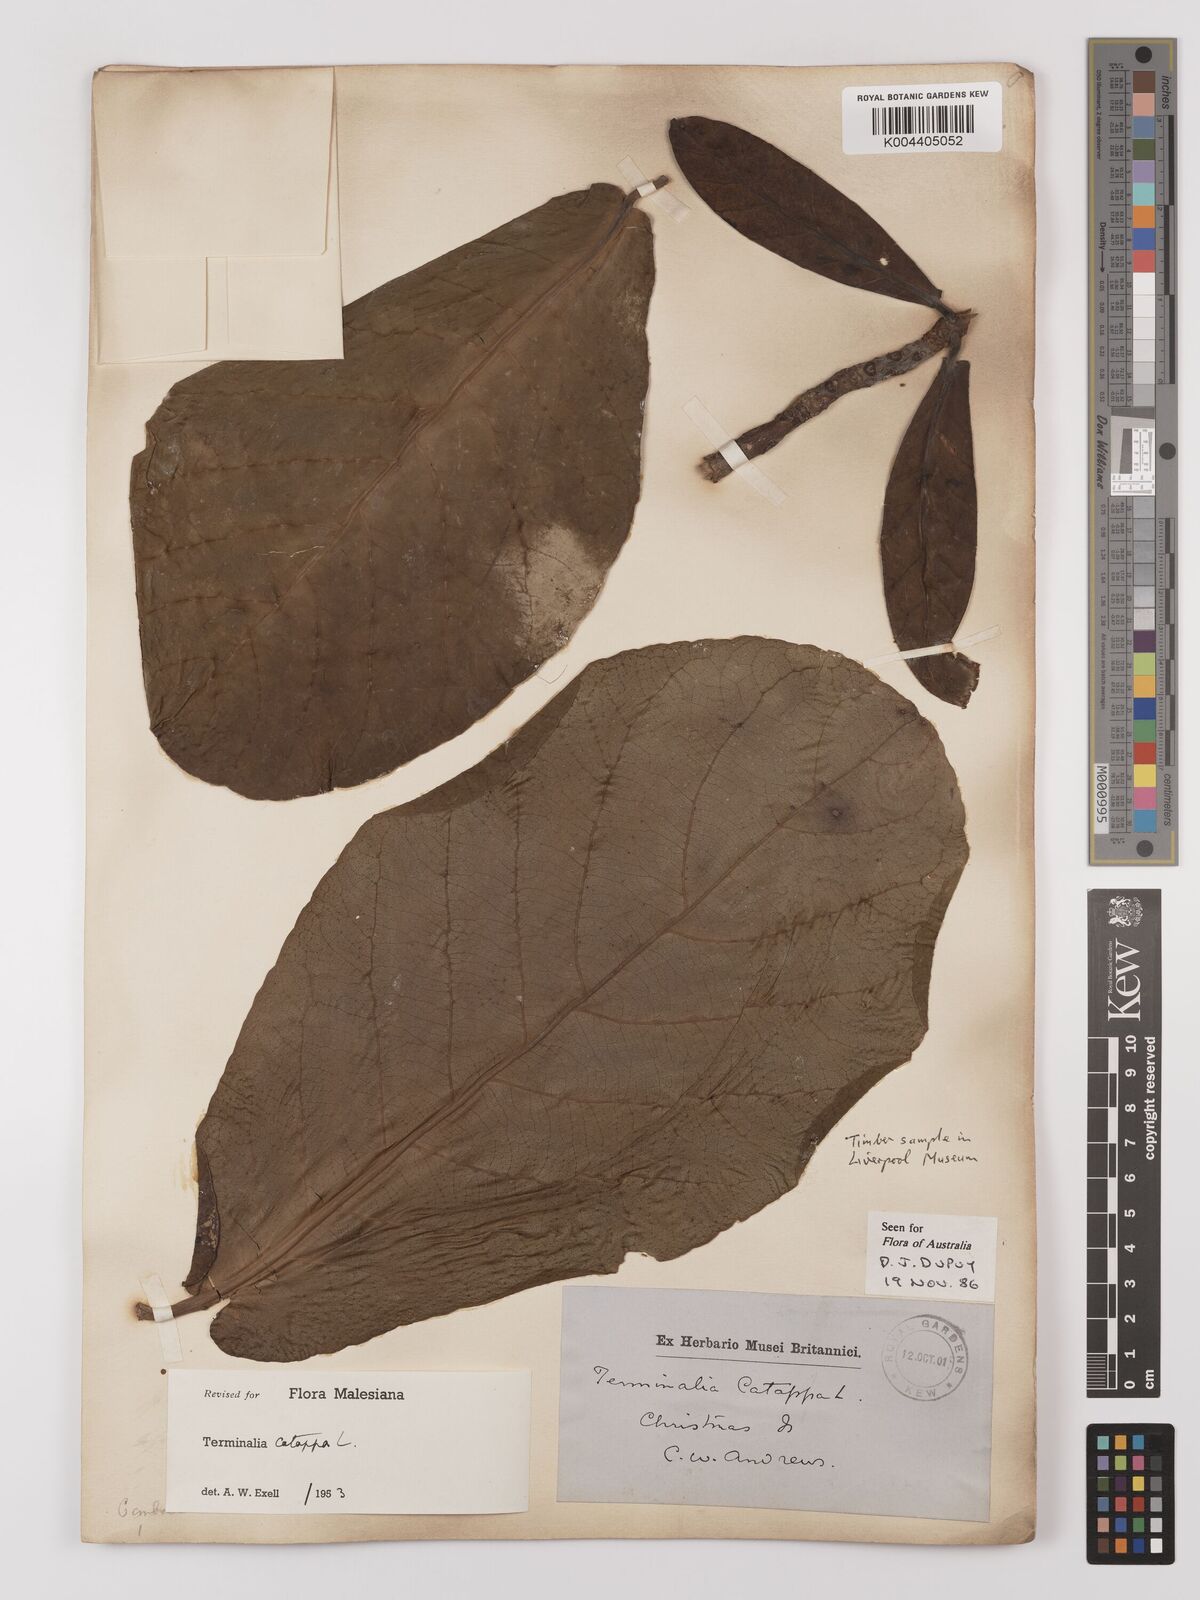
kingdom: Plantae
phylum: Tracheophyta
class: Magnoliopsida
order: Myrtales
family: Combretaceae
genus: Terminalia
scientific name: Terminalia catappa
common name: Tropical almond
